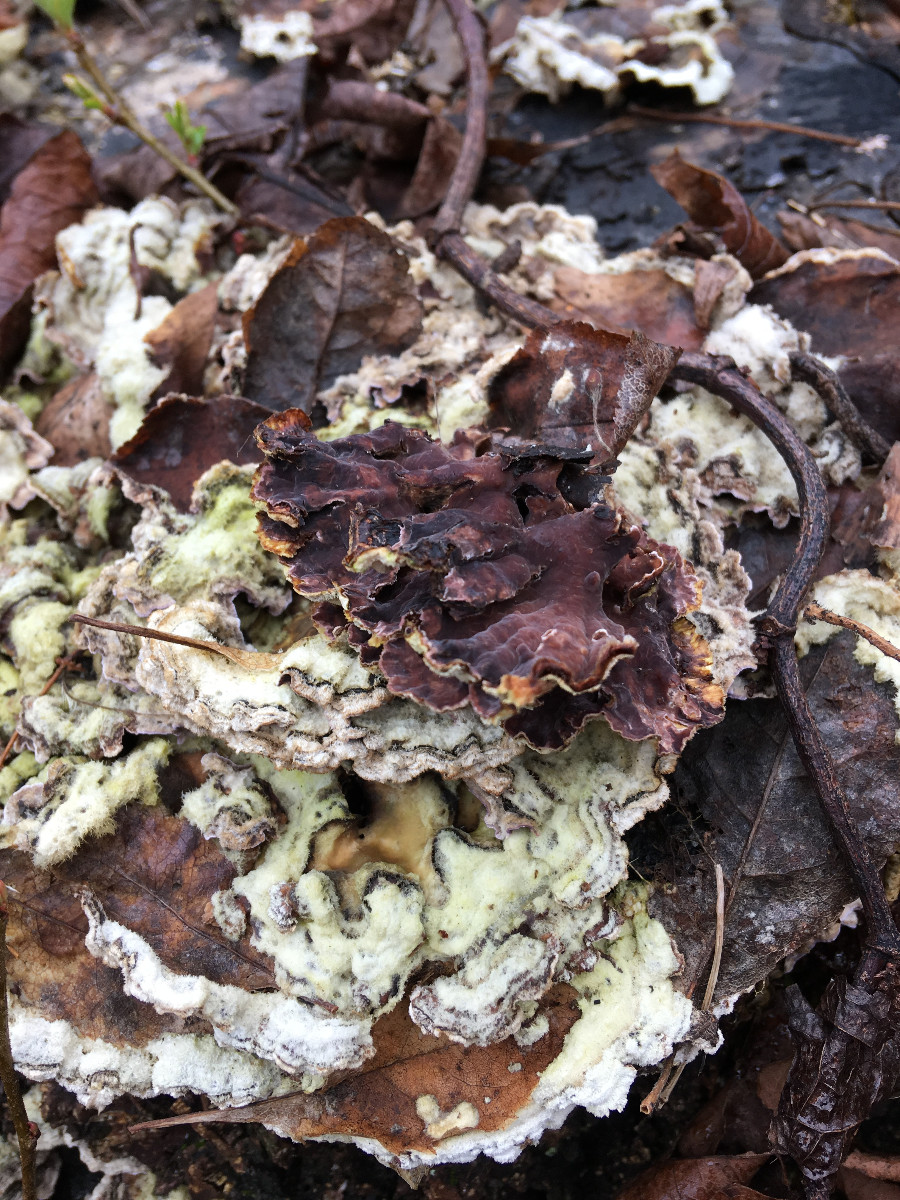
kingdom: Fungi
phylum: Basidiomycota
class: Agaricomycetes
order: Agaricales
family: Cyphellaceae
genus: Chondrostereum
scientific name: Chondrostereum purpureum
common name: purpurlædersvamp
